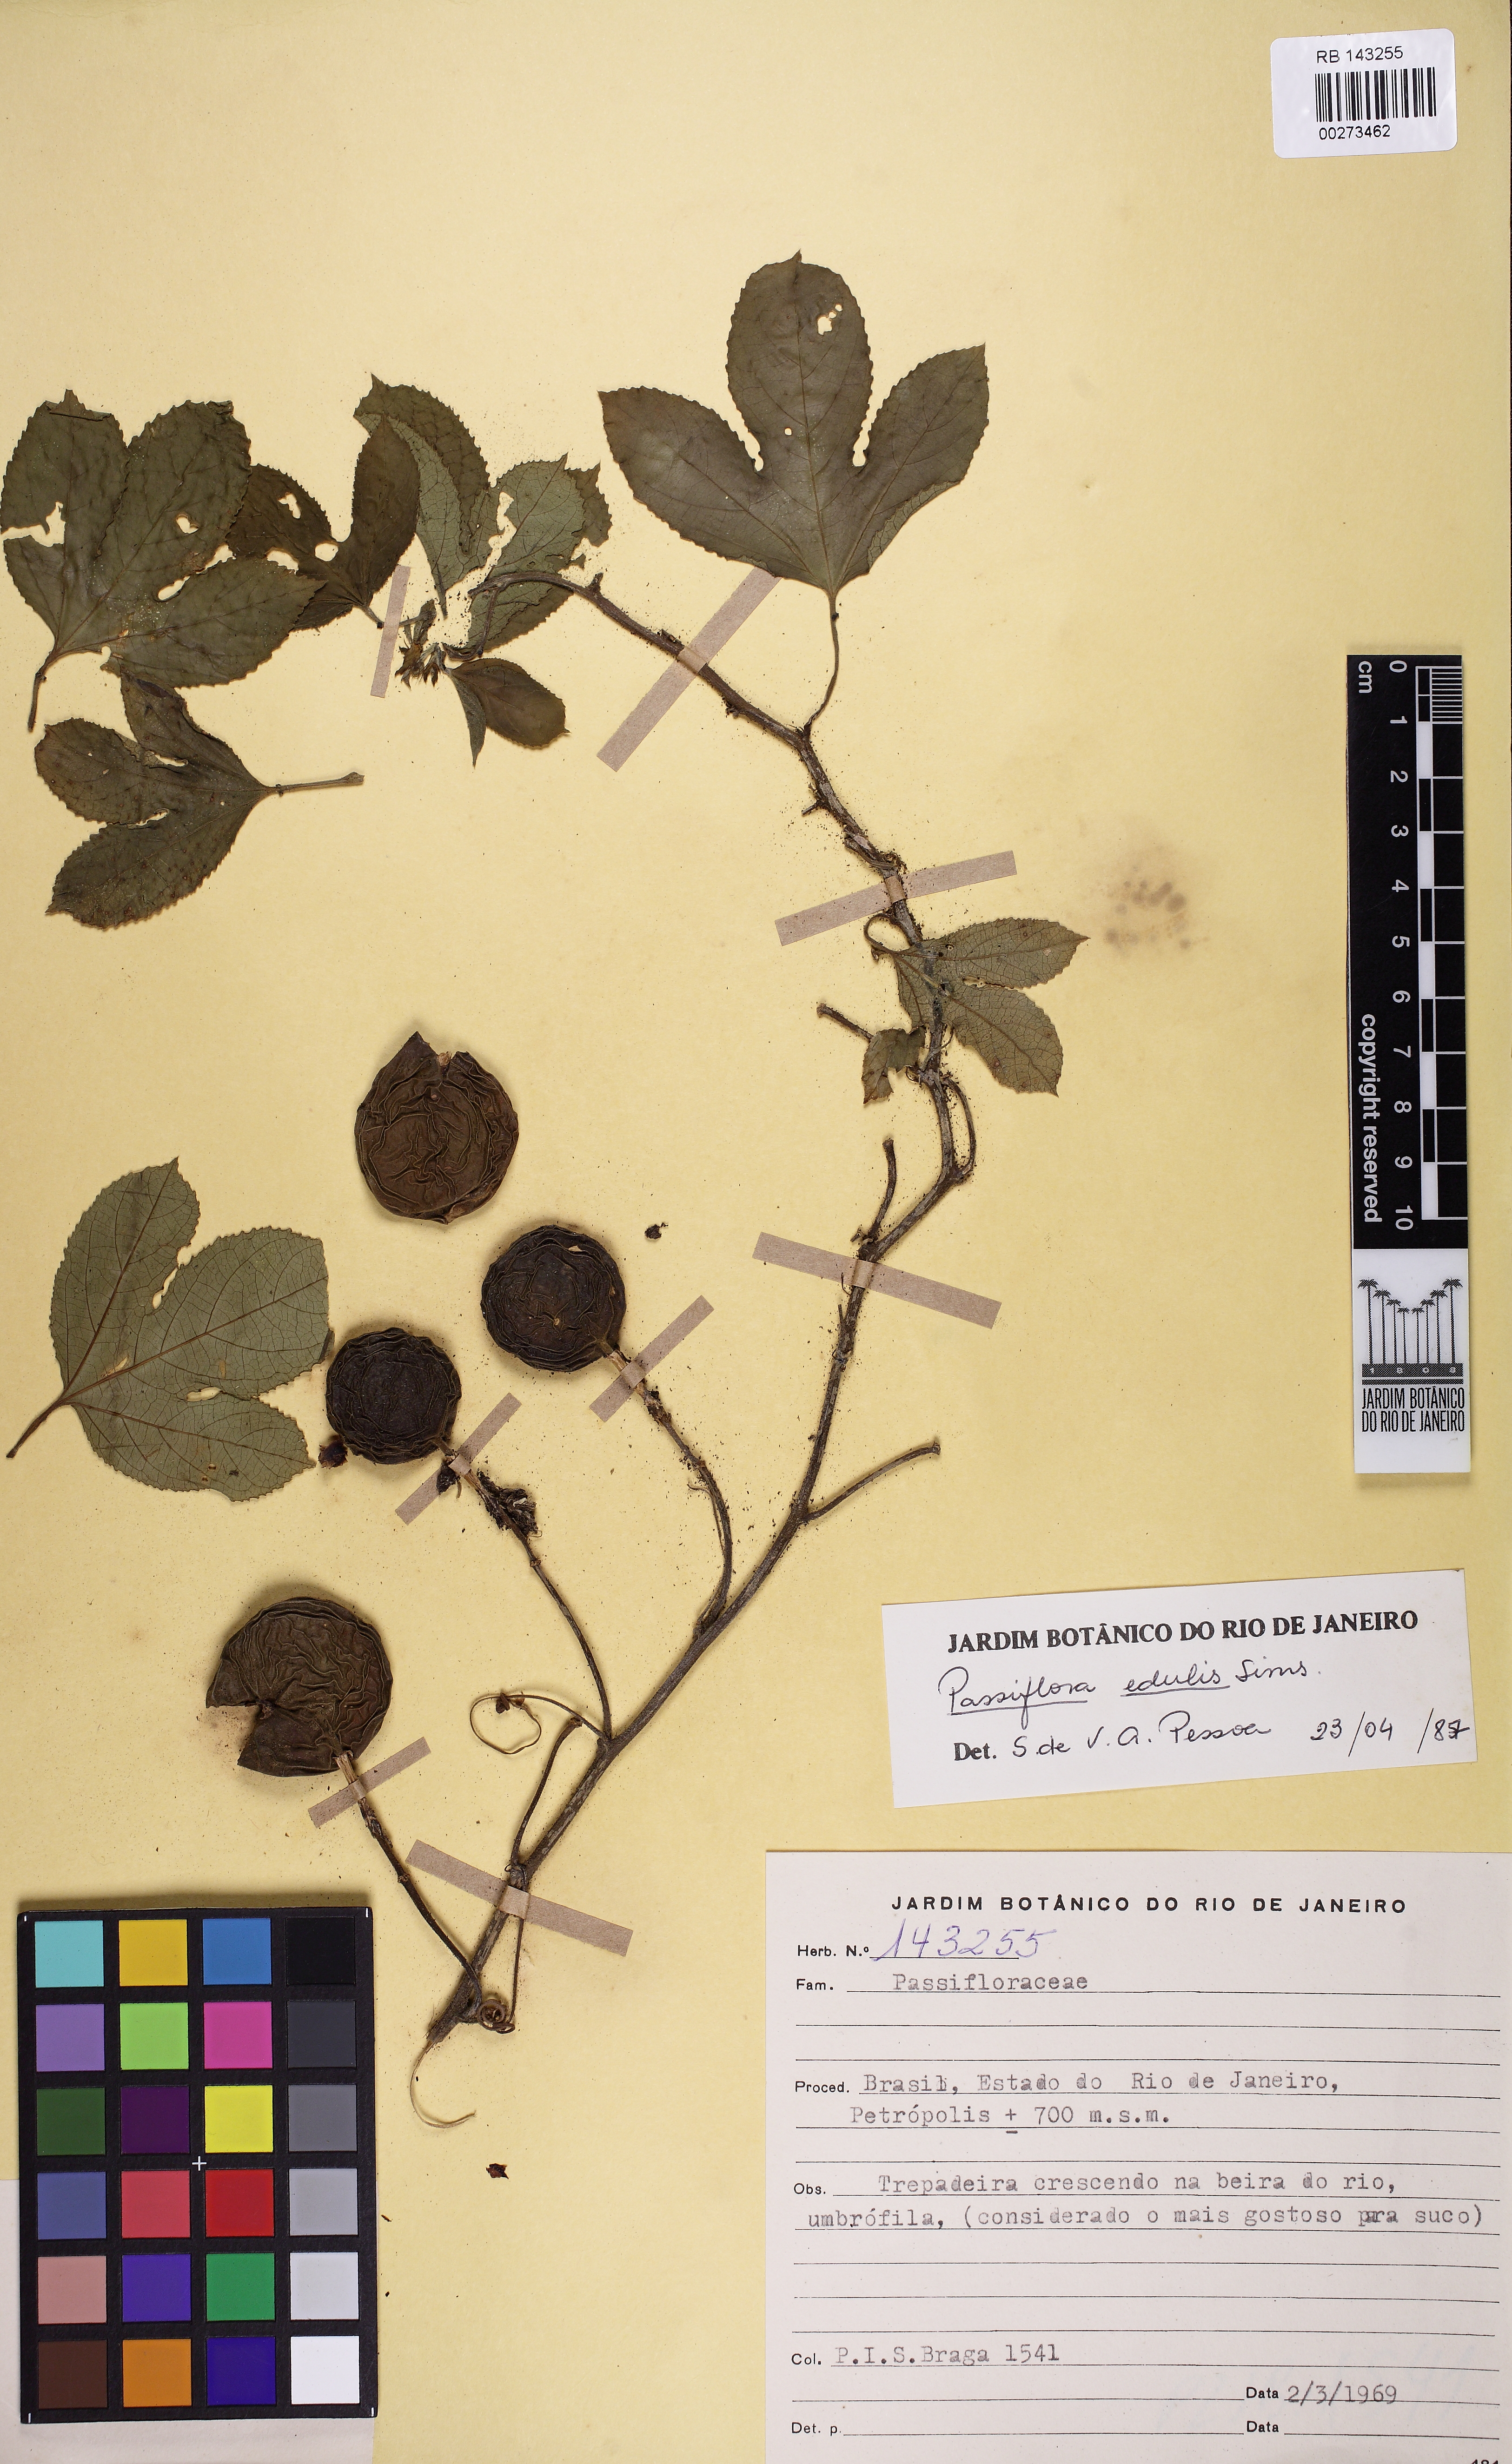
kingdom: Plantae
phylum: Tracheophyta
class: Magnoliopsida
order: Malpighiales
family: Passifloraceae
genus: Passiflora
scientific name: Passiflora edulis
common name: Purple granadilla
